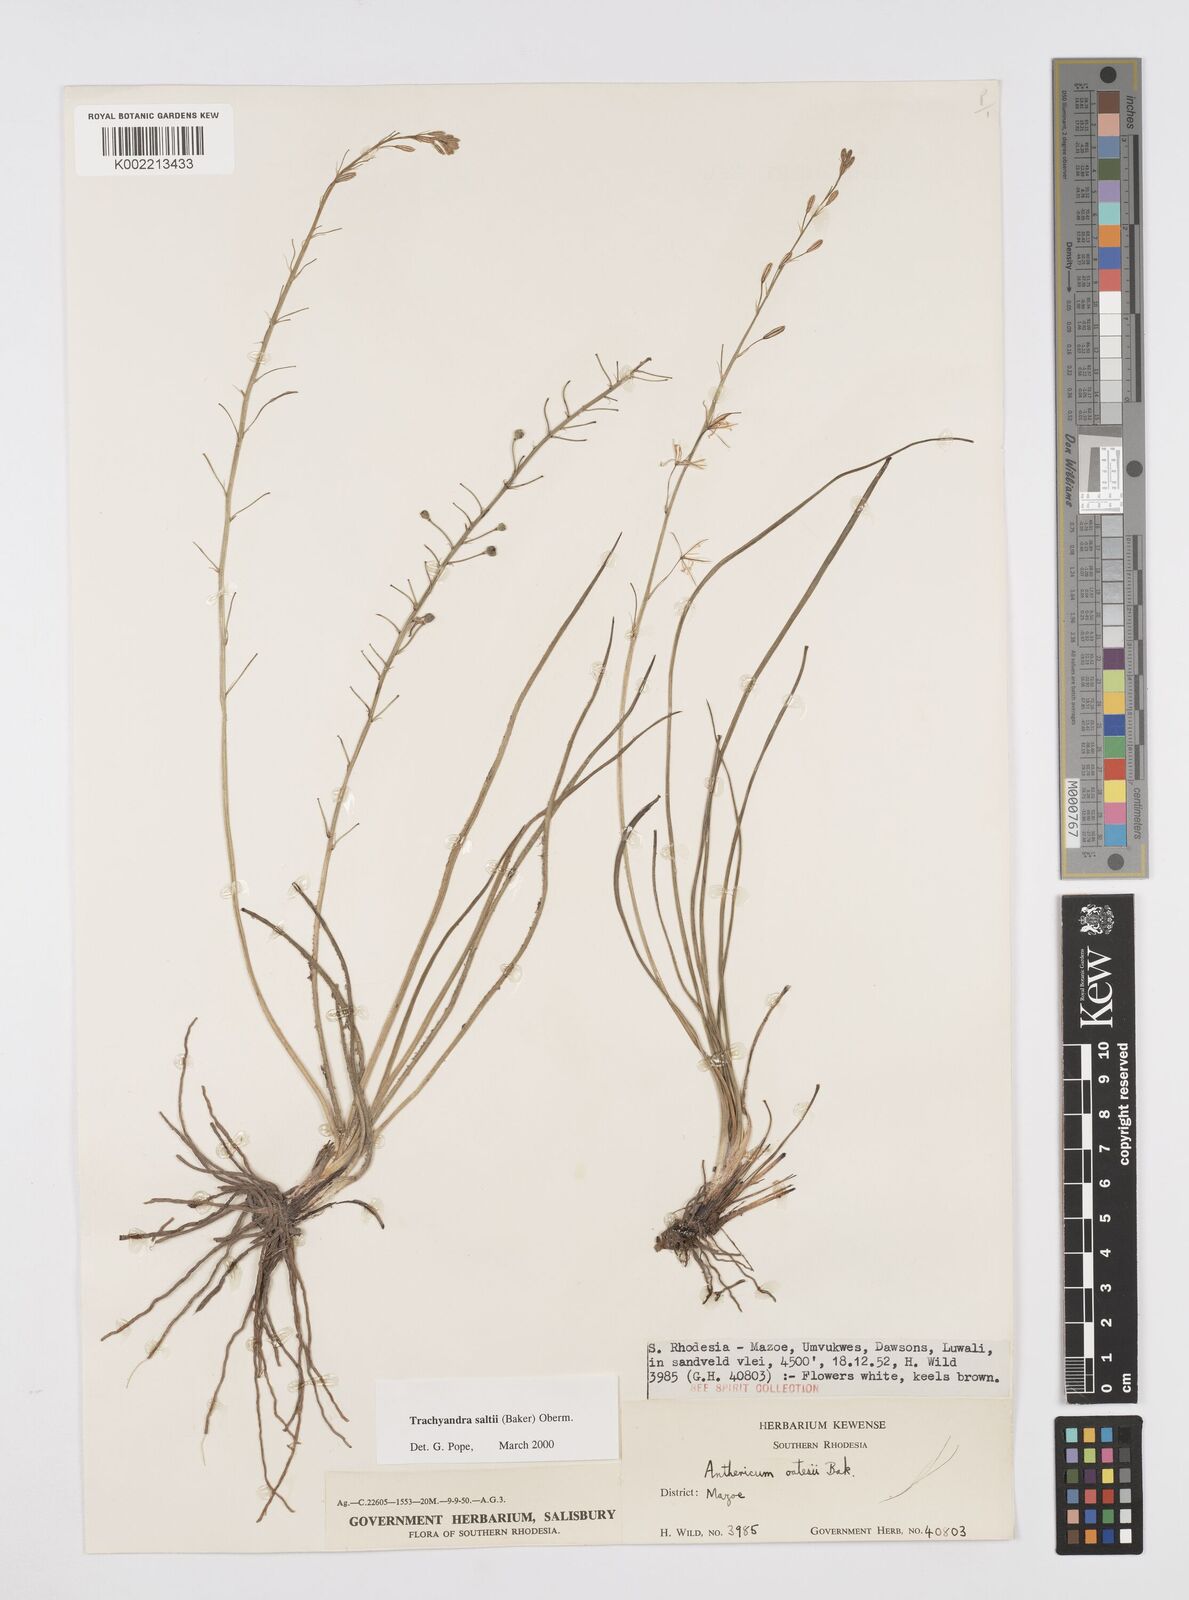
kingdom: Plantae
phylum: Tracheophyta
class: Liliopsida
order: Asparagales
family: Asphodelaceae
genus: Trachyandra
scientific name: Trachyandra saltii
